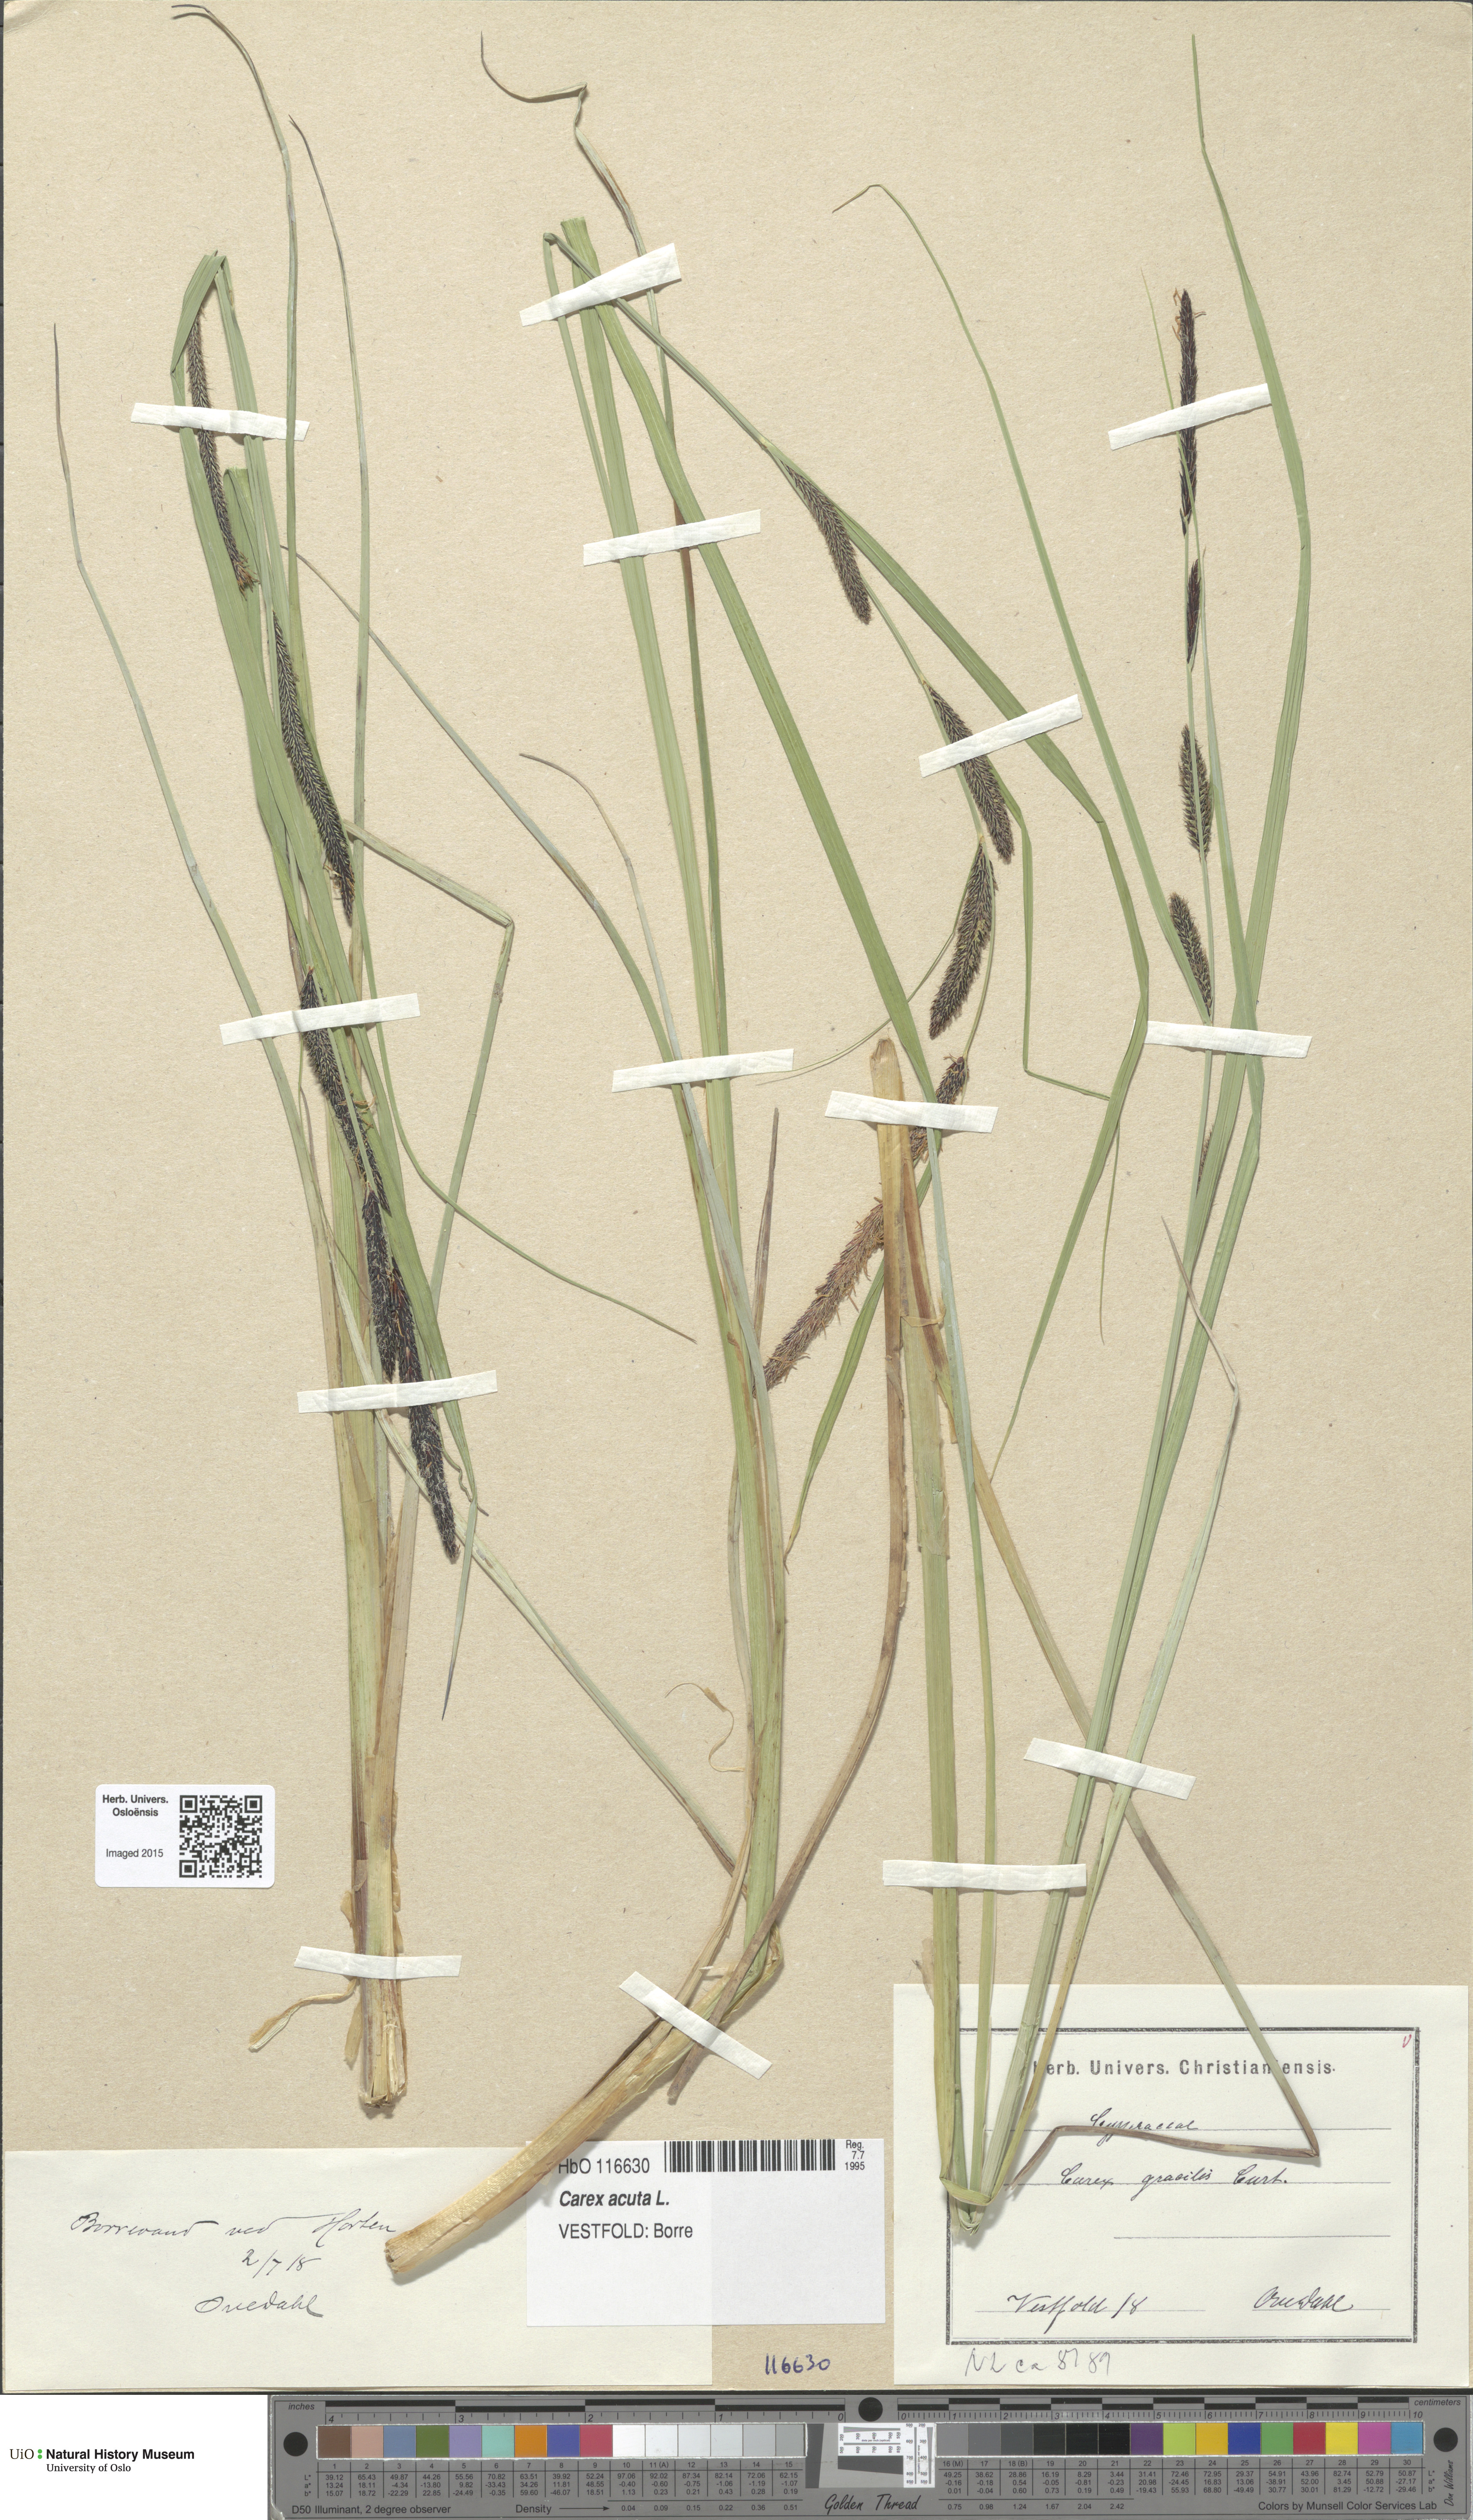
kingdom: Plantae
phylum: Tracheophyta
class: Liliopsida
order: Poales
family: Cyperaceae
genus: Carex
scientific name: Carex acuta
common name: Slender tufted-sedge
